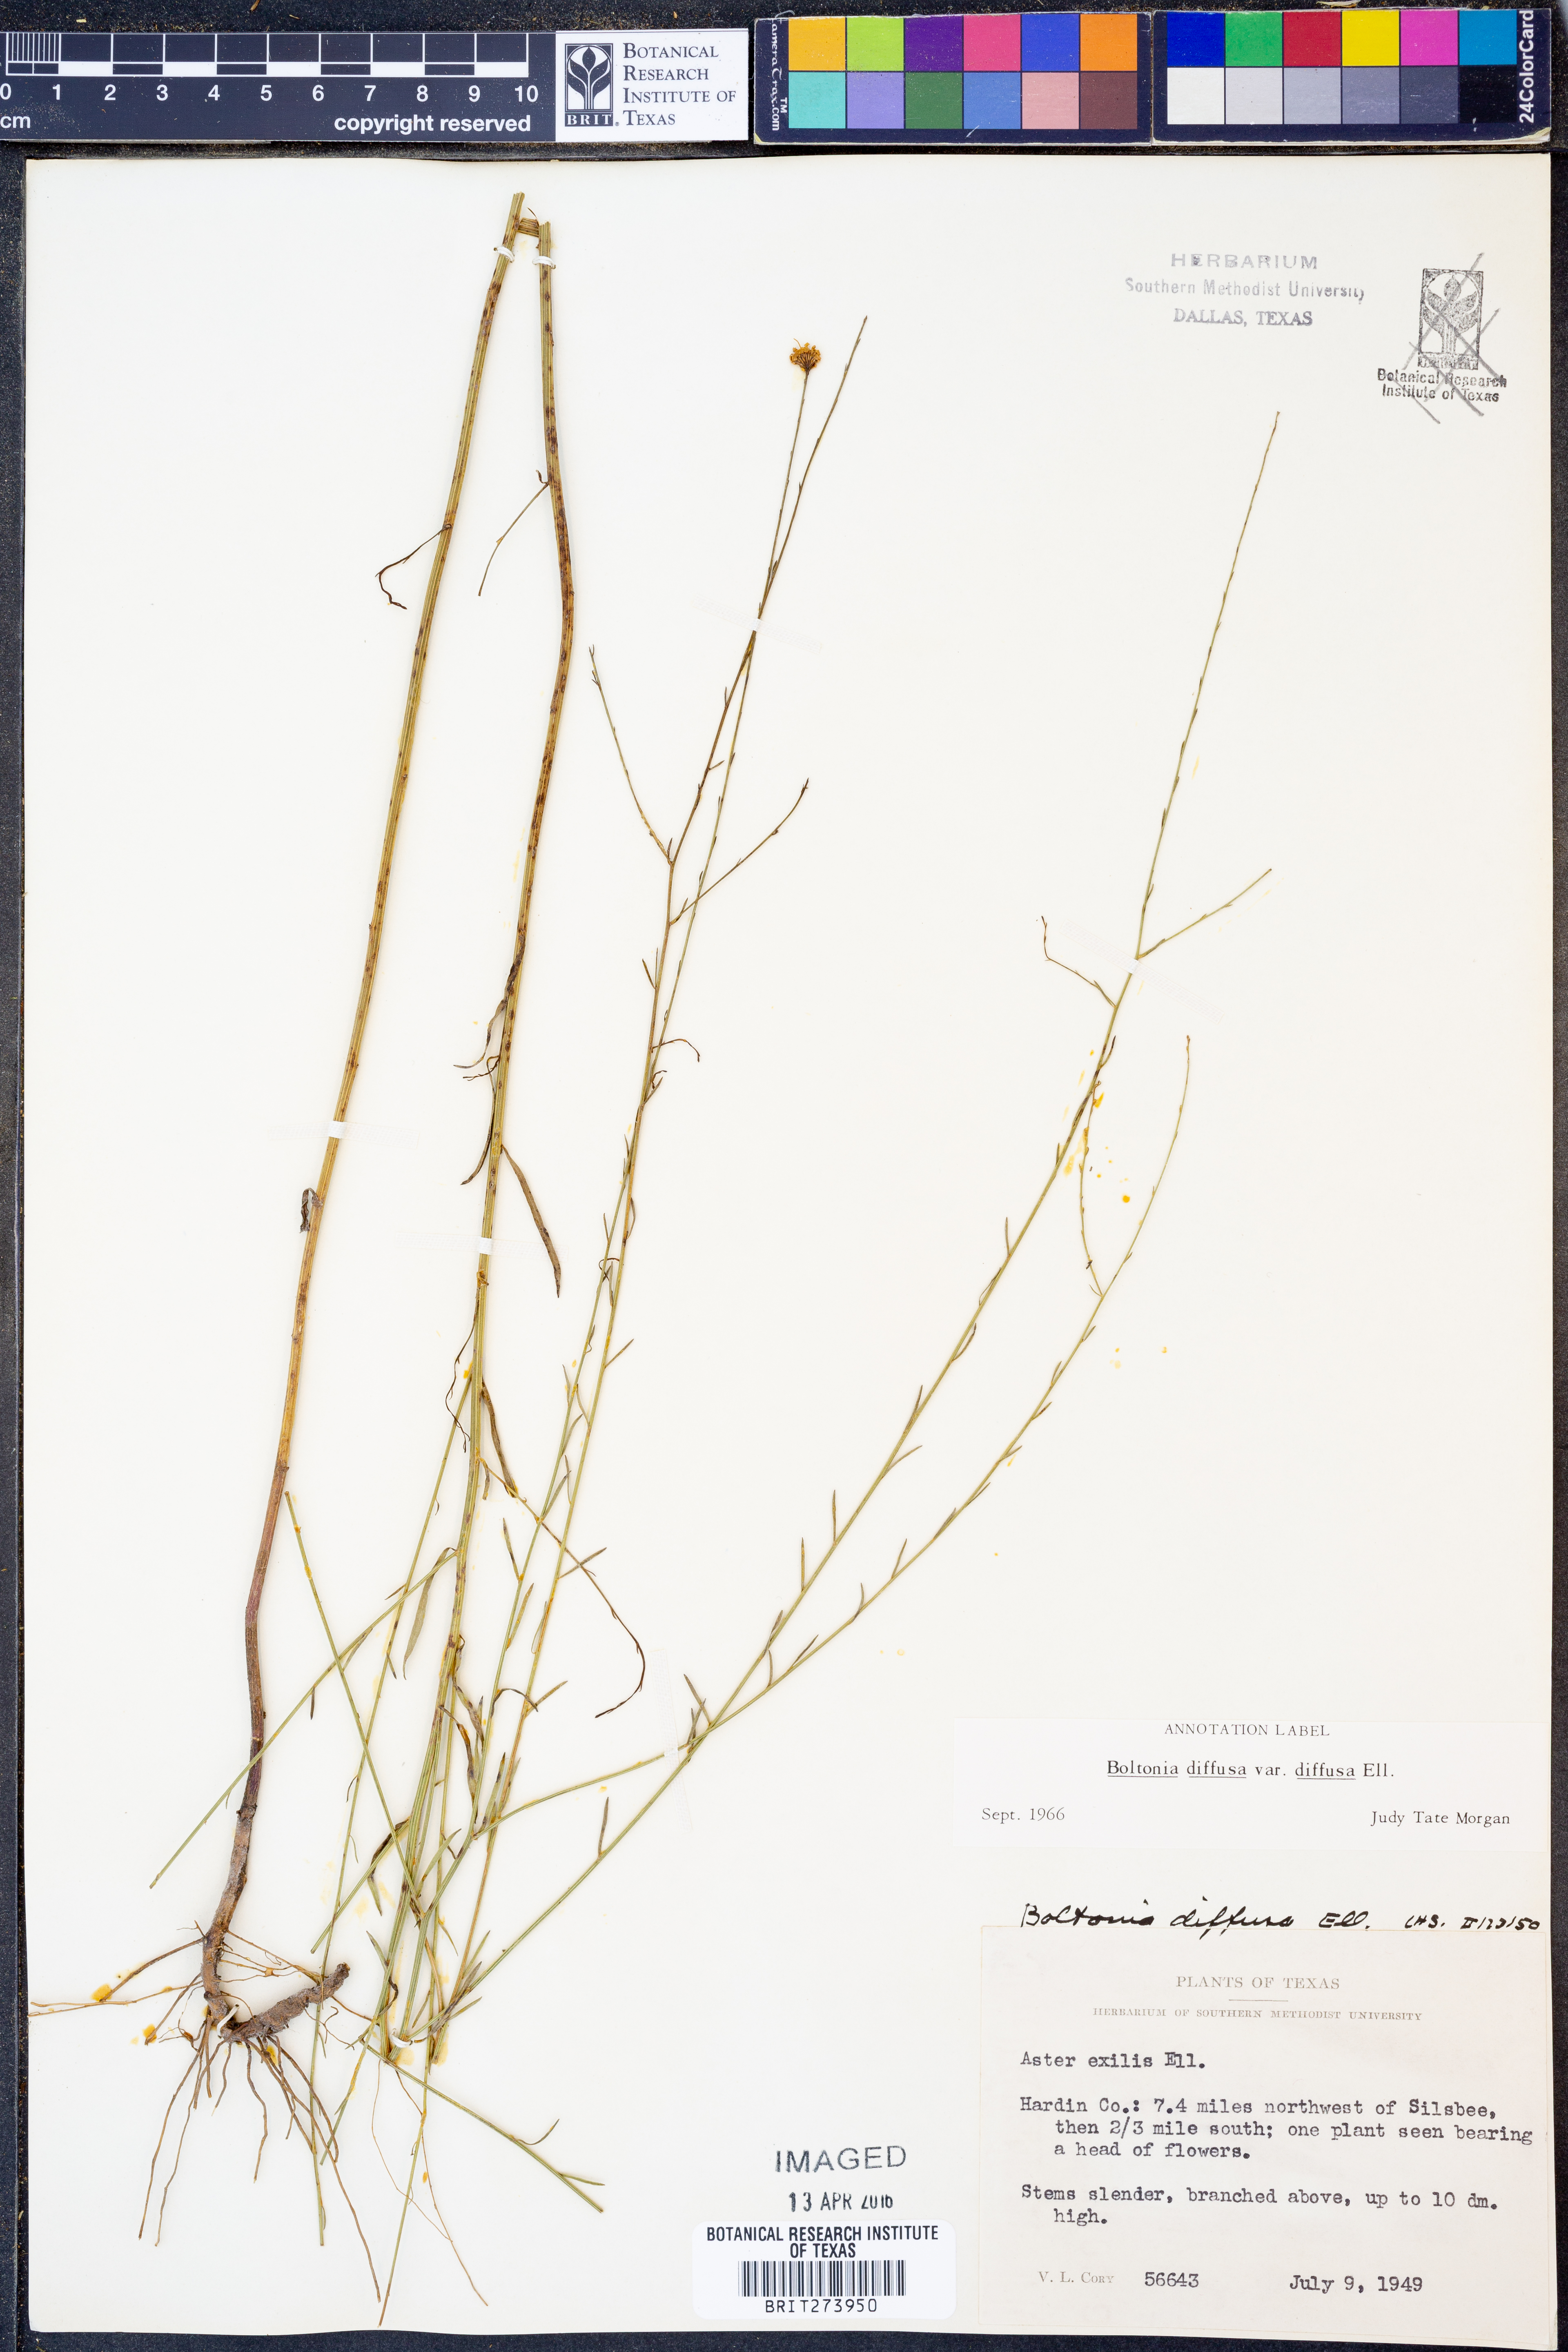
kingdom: Plantae
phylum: Tracheophyta
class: Magnoliopsida
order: Asterales
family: Asteraceae
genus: Boltonia
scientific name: Boltonia diffusa
